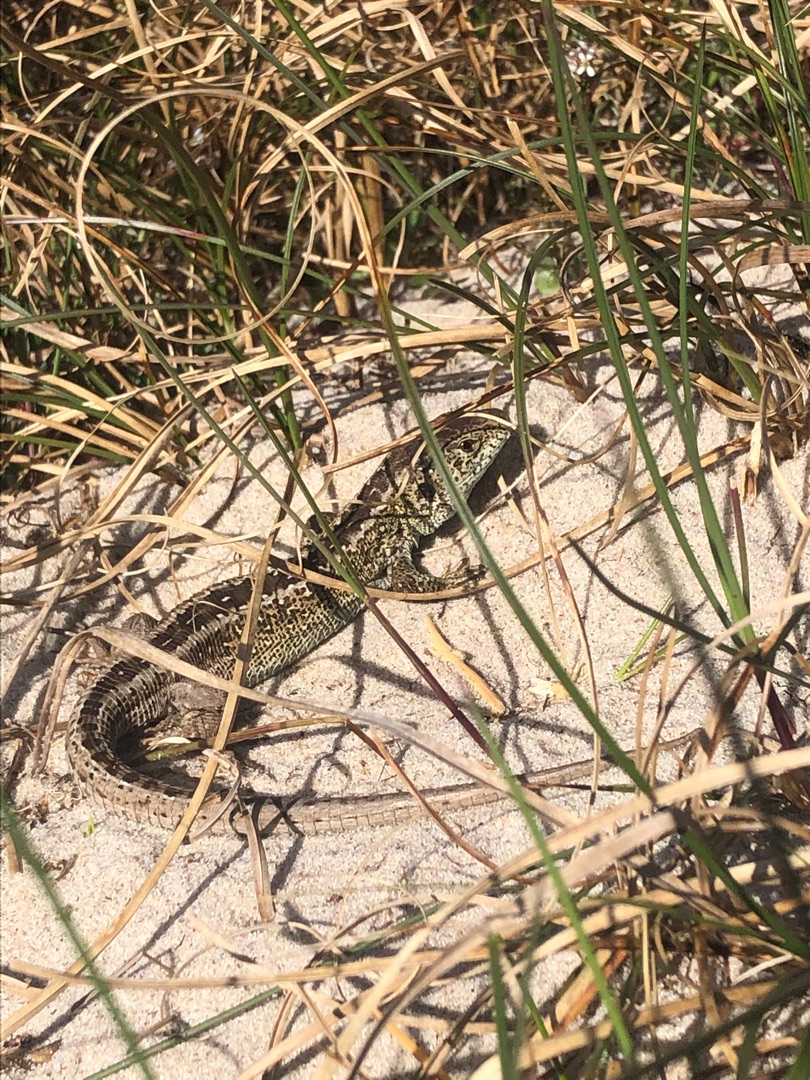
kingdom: Animalia
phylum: Chordata
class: Squamata
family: Lacertidae
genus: Lacerta
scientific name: Lacerta agilis
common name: Markfirben
